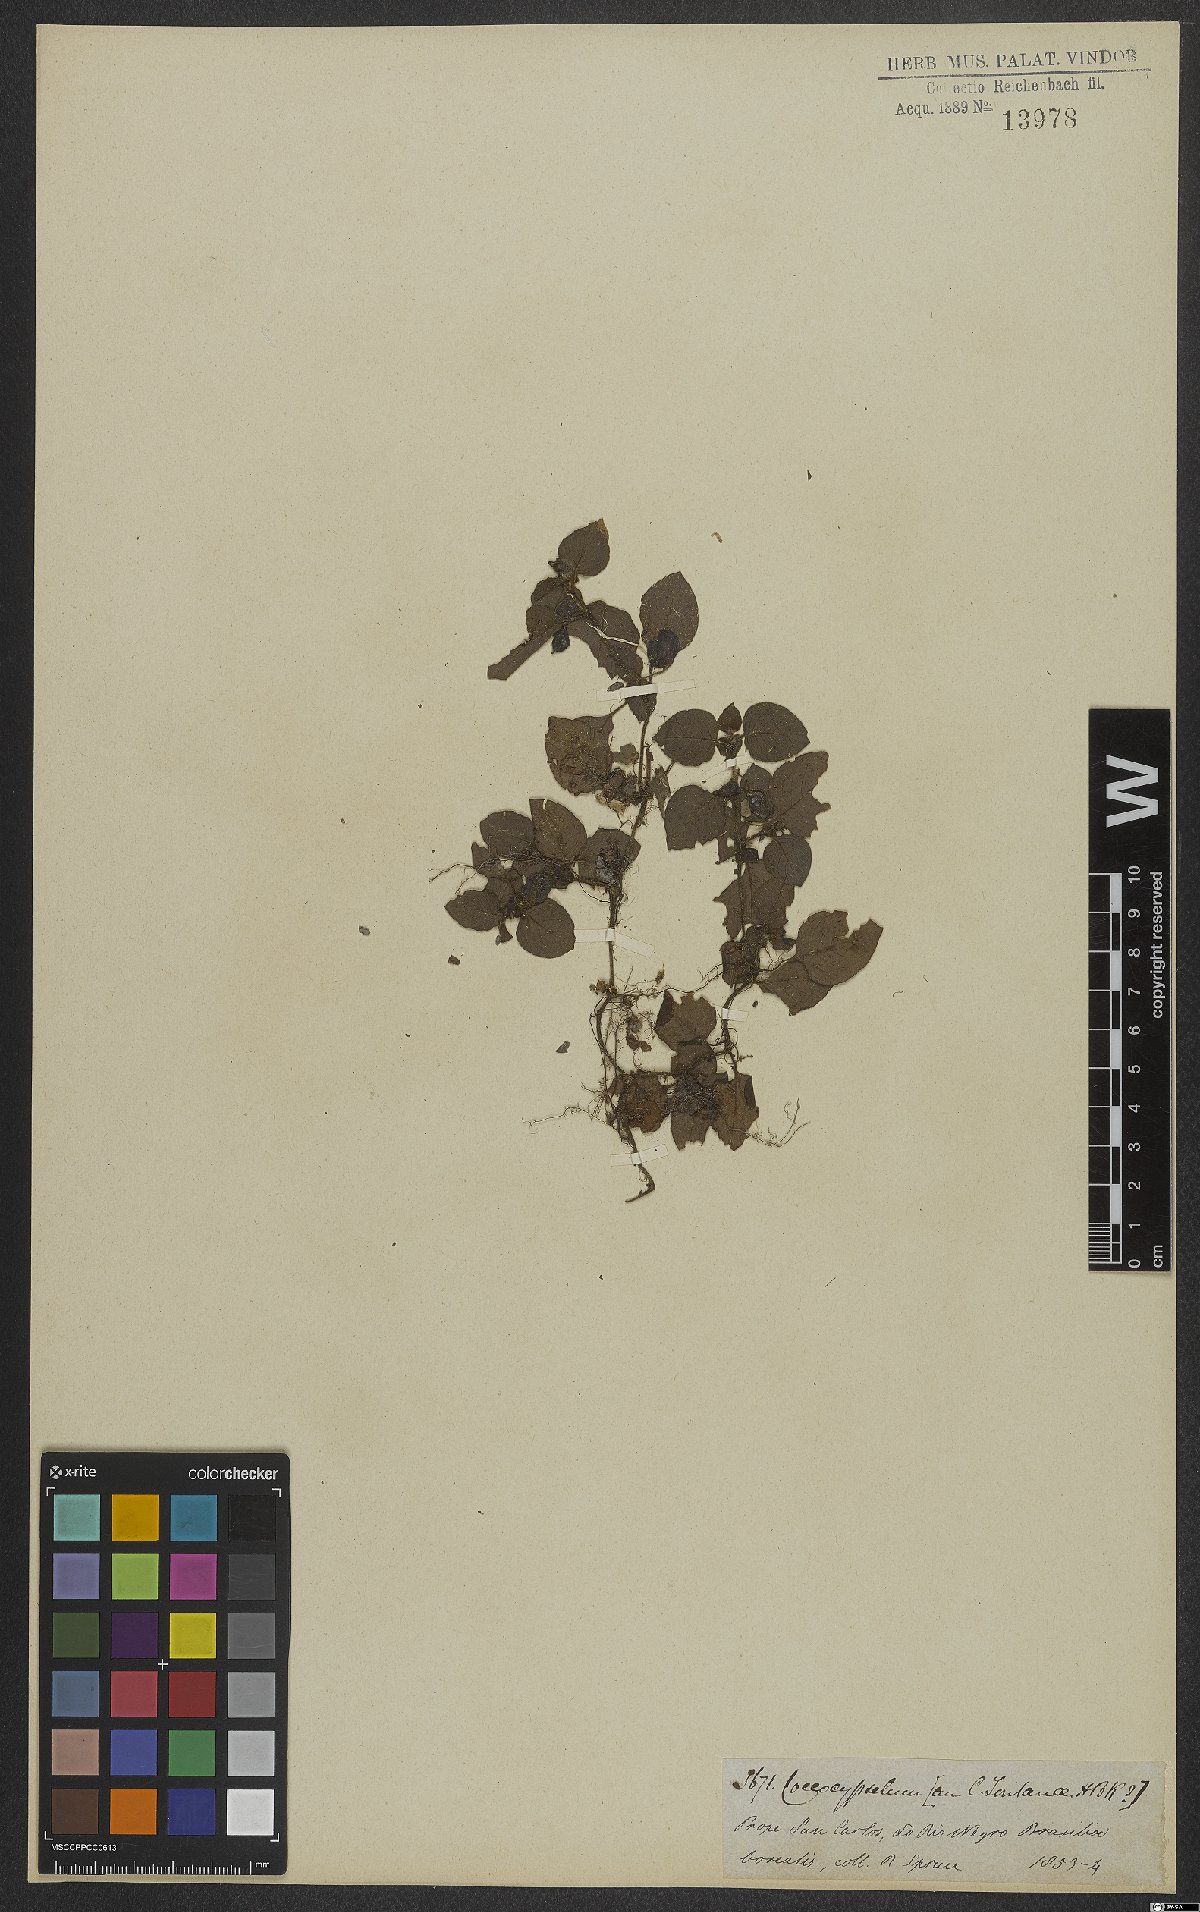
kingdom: Plantae
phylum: Tracheophyta
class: Magnoliopsida
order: Gentianales
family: Rubiaceae
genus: Coccocypselum
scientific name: Coccocypselum guianense
